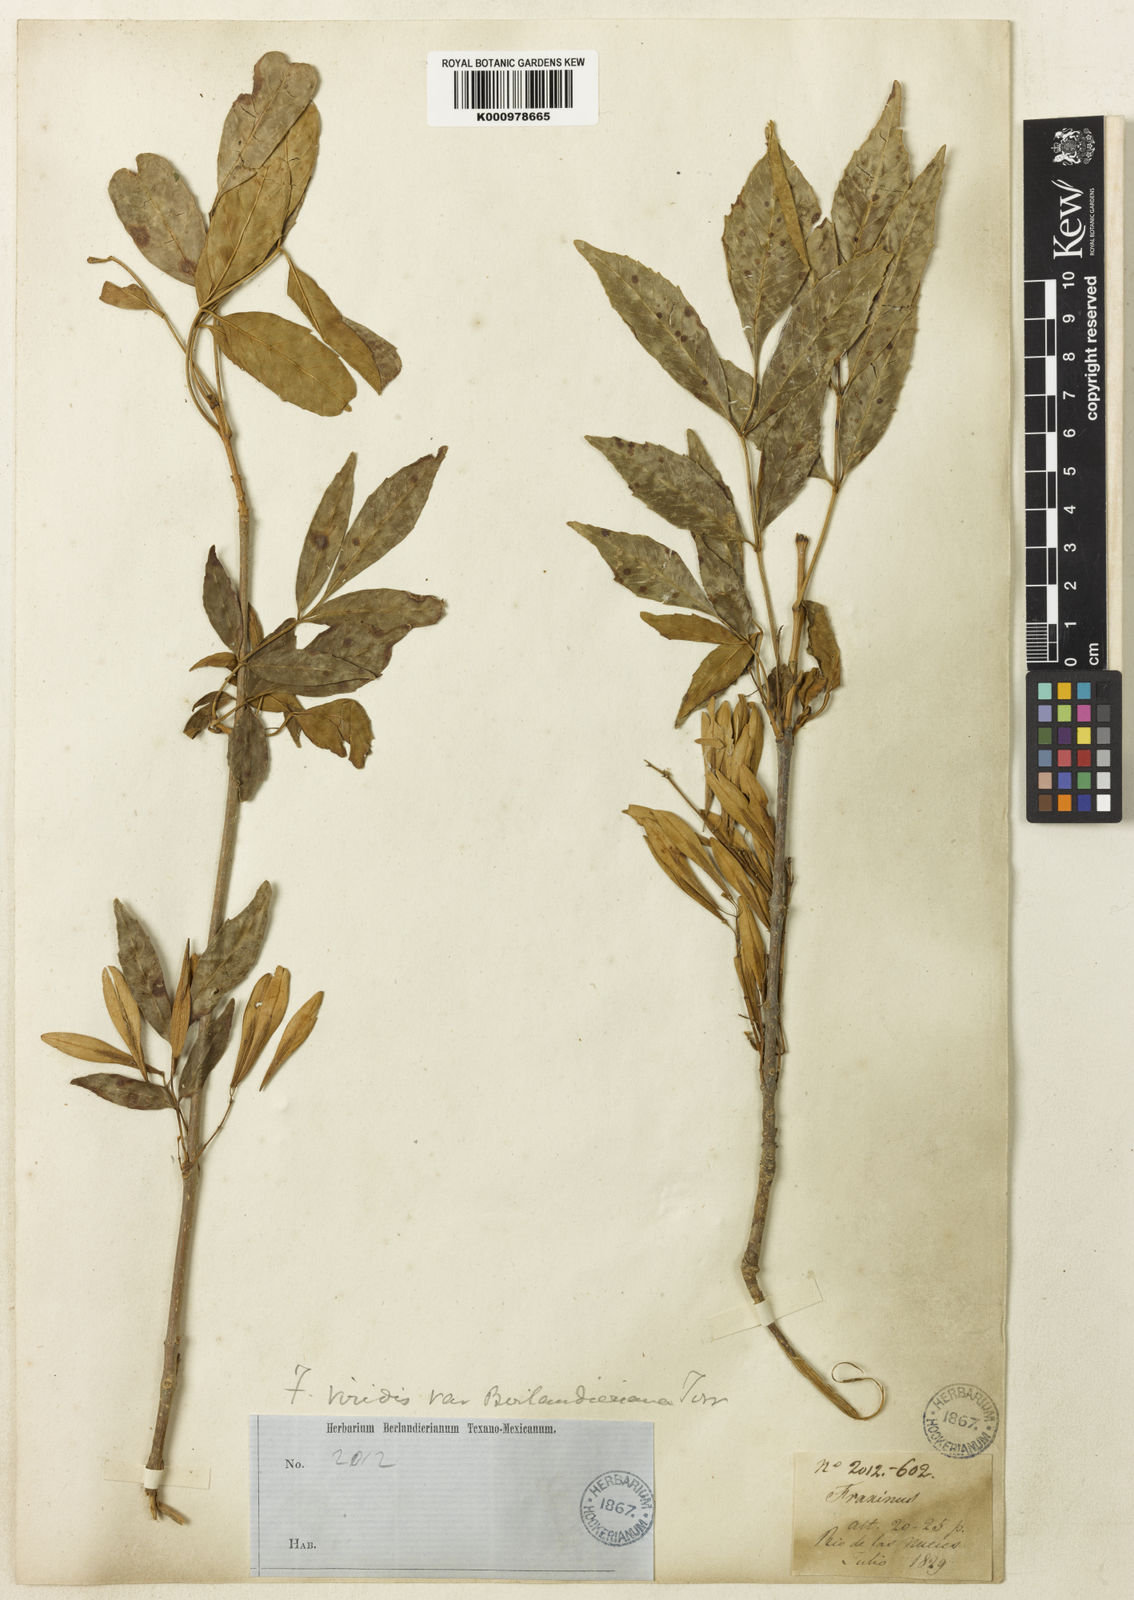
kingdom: Plantae
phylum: Tracheophyta
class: Magnoliopsida
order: Lamiales
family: Oleaceae
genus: Fraxinus
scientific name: Fraxinus berlandieriana
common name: Berlandier ash
